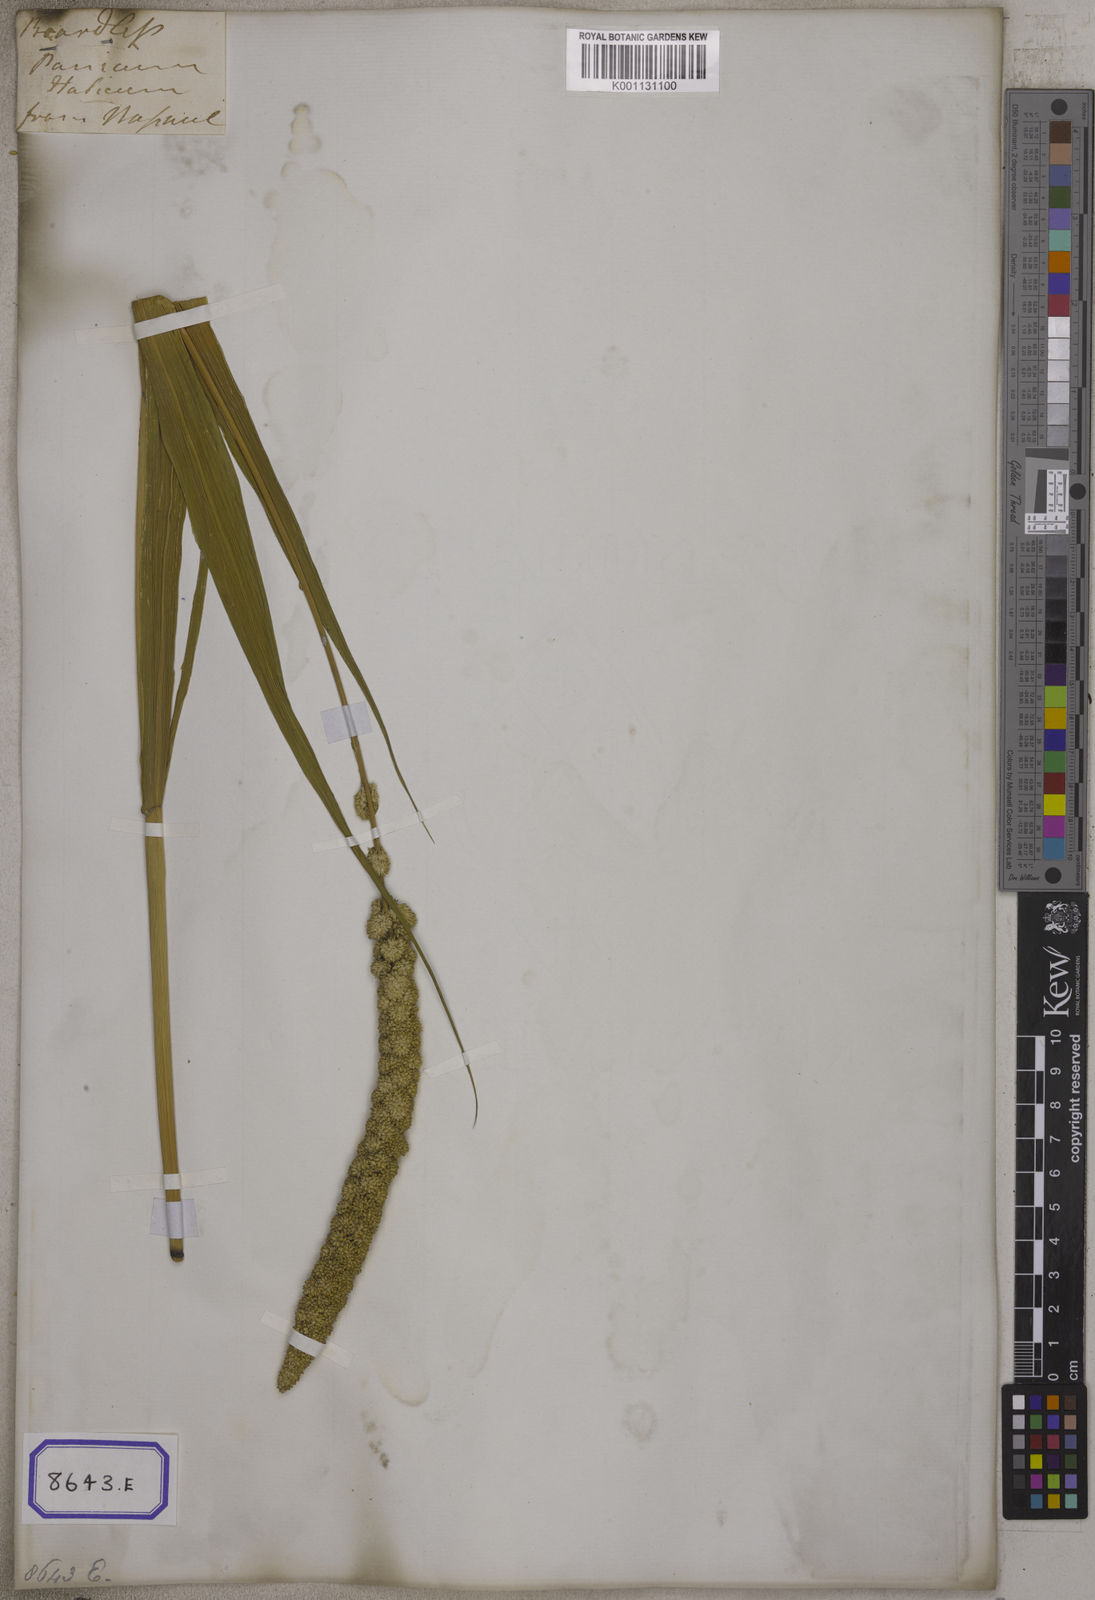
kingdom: Plantae
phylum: Tracheophyta
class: Liliopsida
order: Poales
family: Poaceae
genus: Setaria
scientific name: Setaria italica
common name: Foxtail bristle-grass
